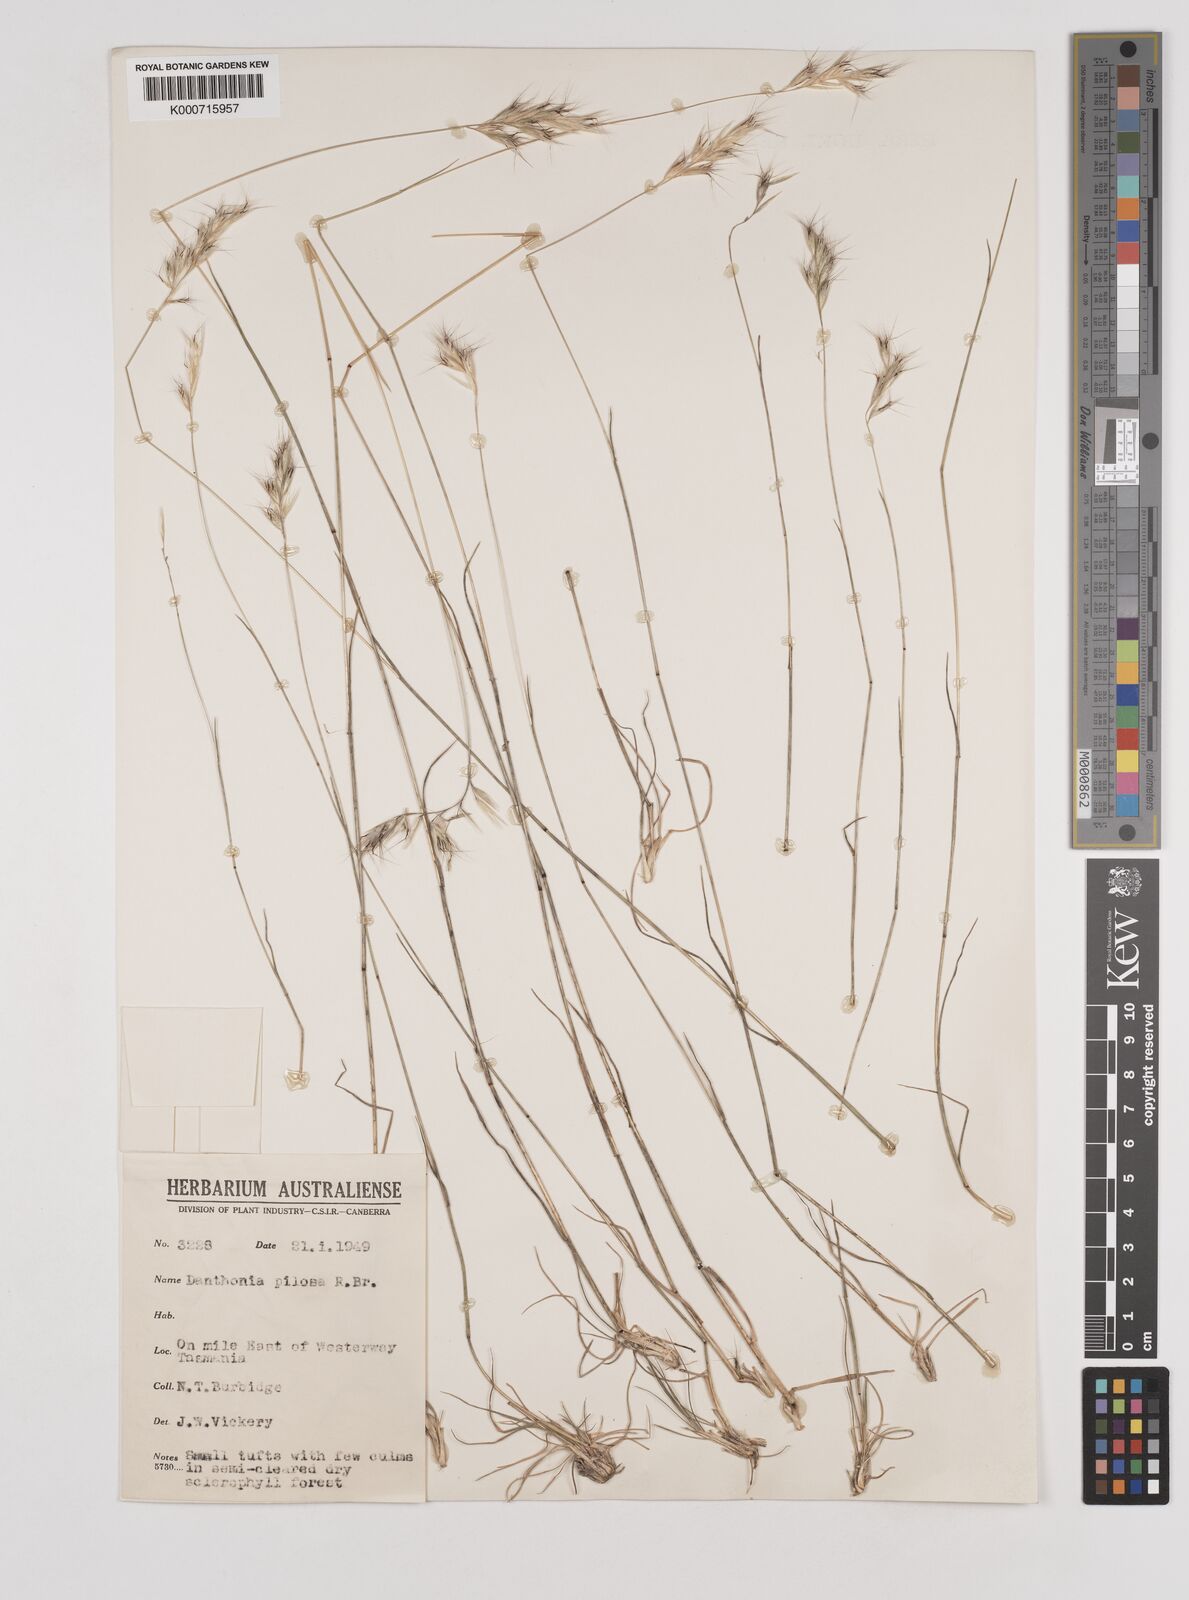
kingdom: Plantae
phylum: Tracheophyta
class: Liliopsida
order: Poales
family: Poaceae
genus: Rytidosperma
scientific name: Rytidosperma pilosum
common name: Hairy wallaby grass
